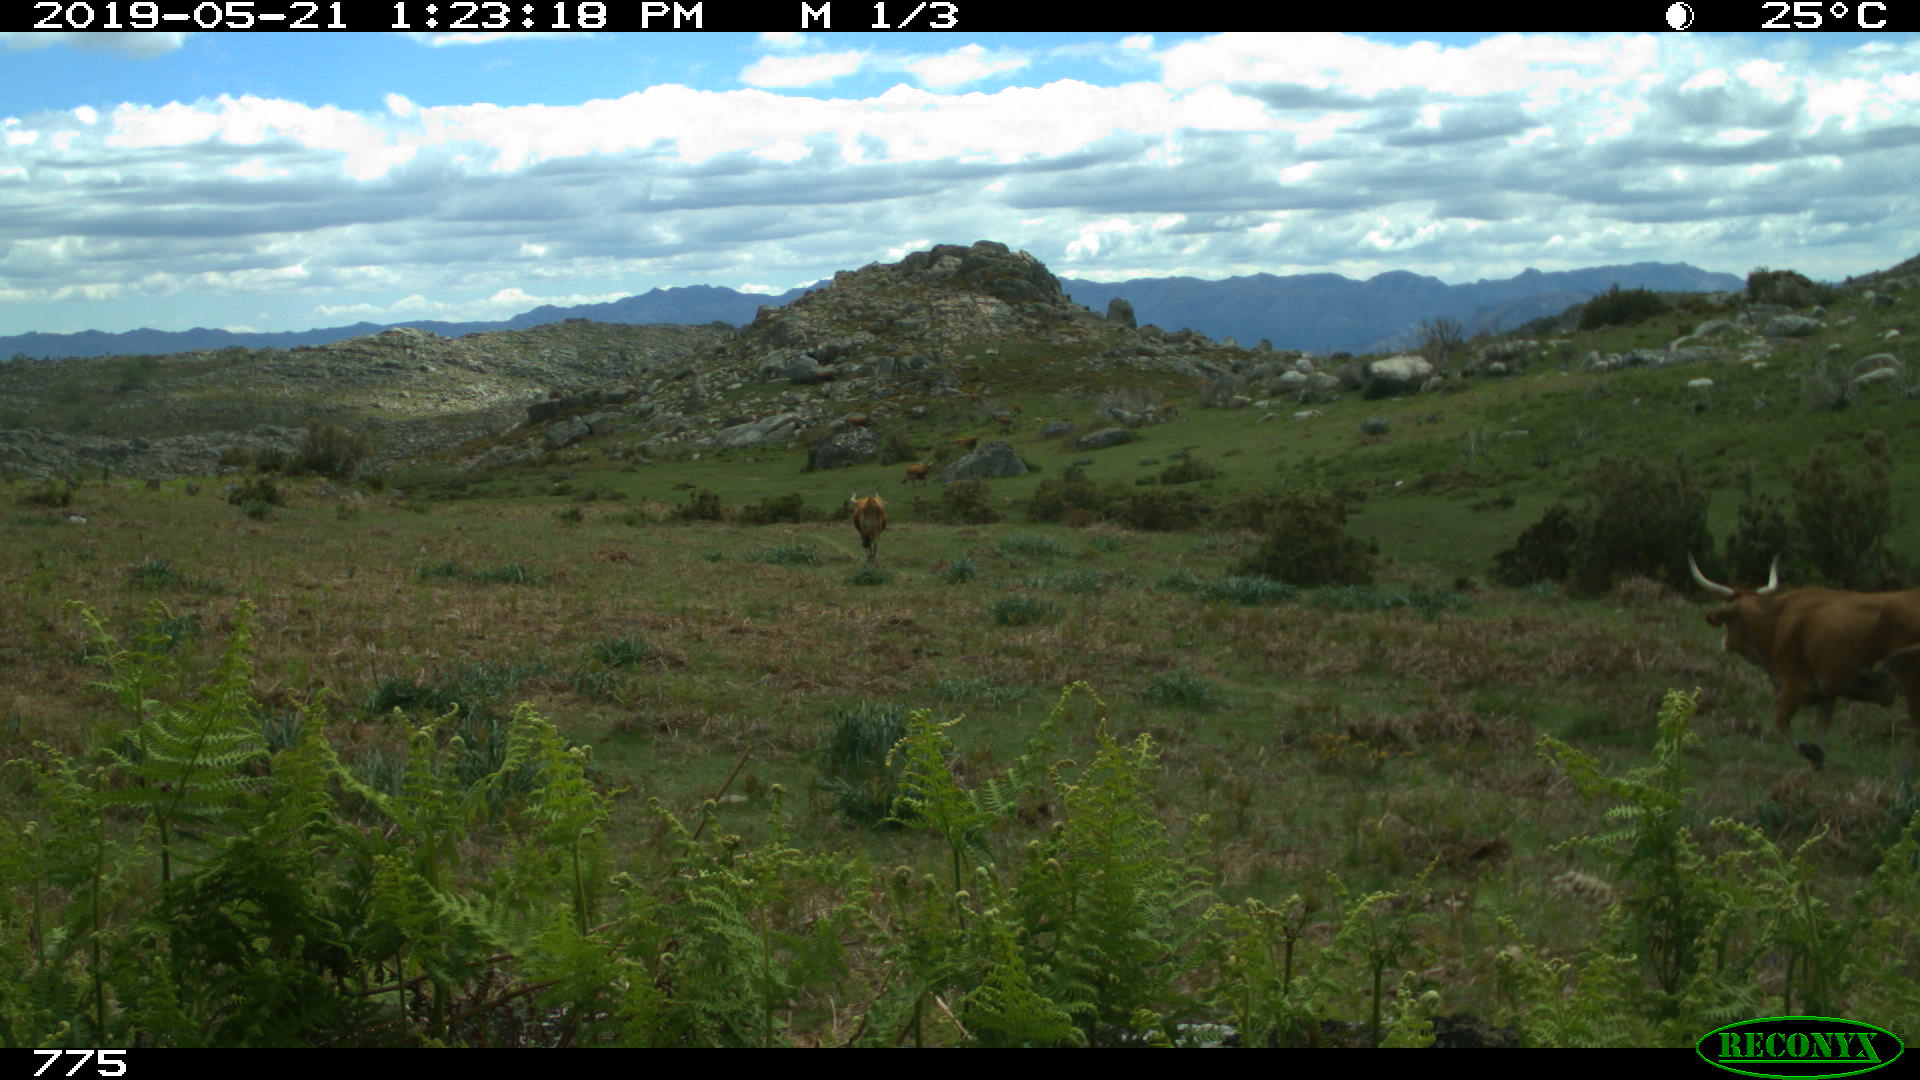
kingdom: Animalia
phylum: Chordata
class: Mammalia
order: Artiodactyla
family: Bovidae
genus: Bos
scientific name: Bos taurus
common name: Domesticated cattle
